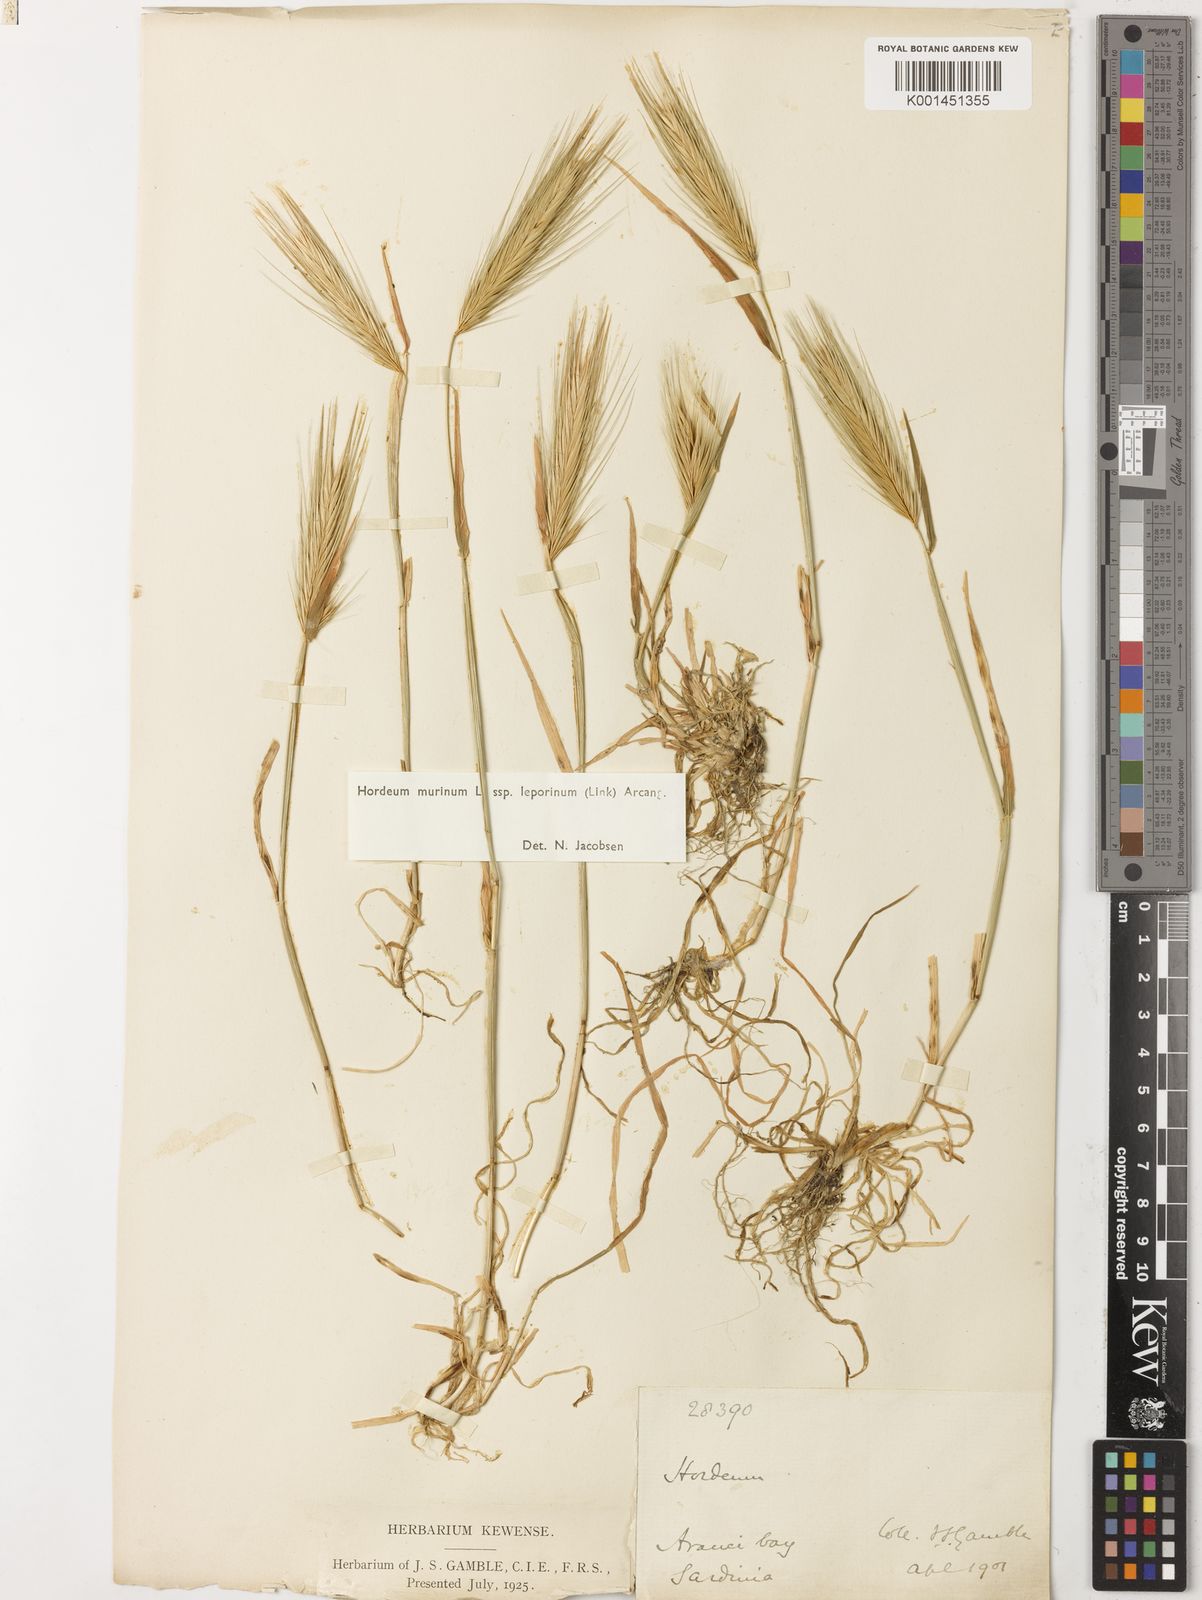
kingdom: Plantae
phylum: Tracheophyta
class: Liliopsida
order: Poales
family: Poaceae
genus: Hordeum
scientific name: Hordeum murinum
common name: Wall barley
